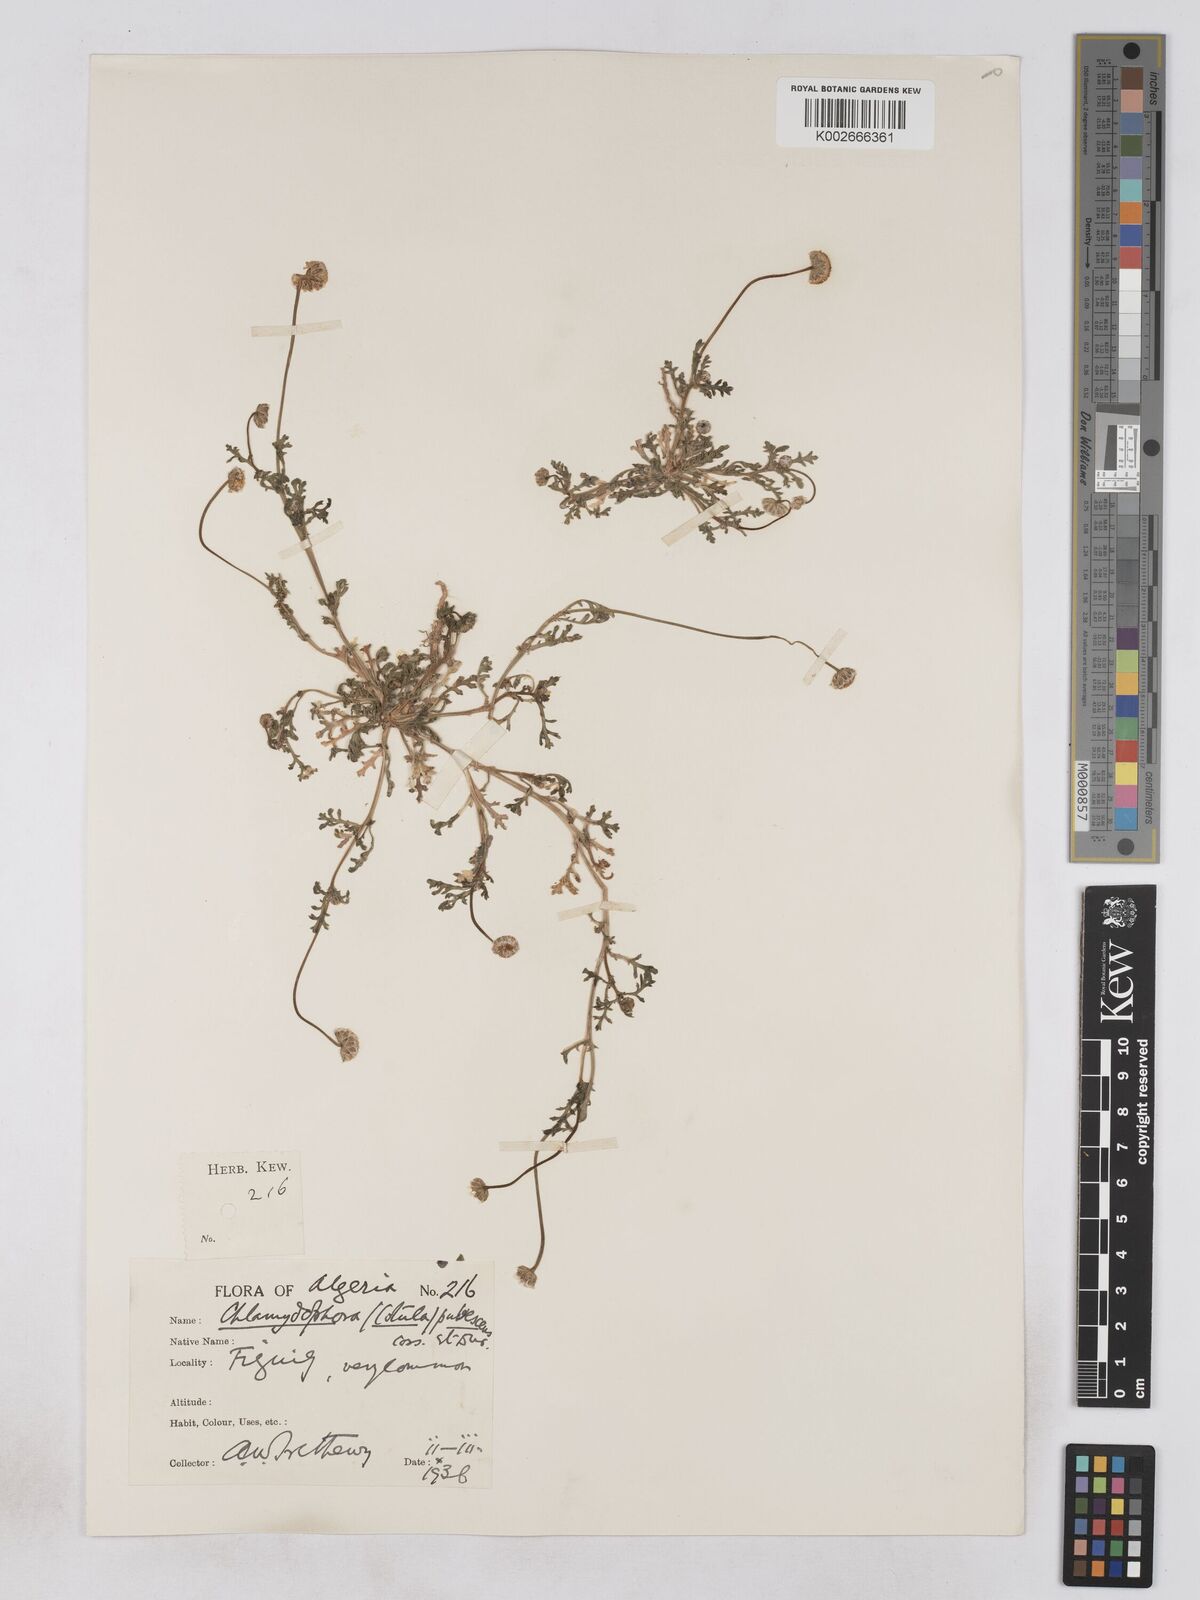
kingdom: Plantae
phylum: Tracheophyta
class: Magnoliopsida
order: Asterales
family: Asteraceae
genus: Otoglyphis
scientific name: Otoglyphis pubescens
